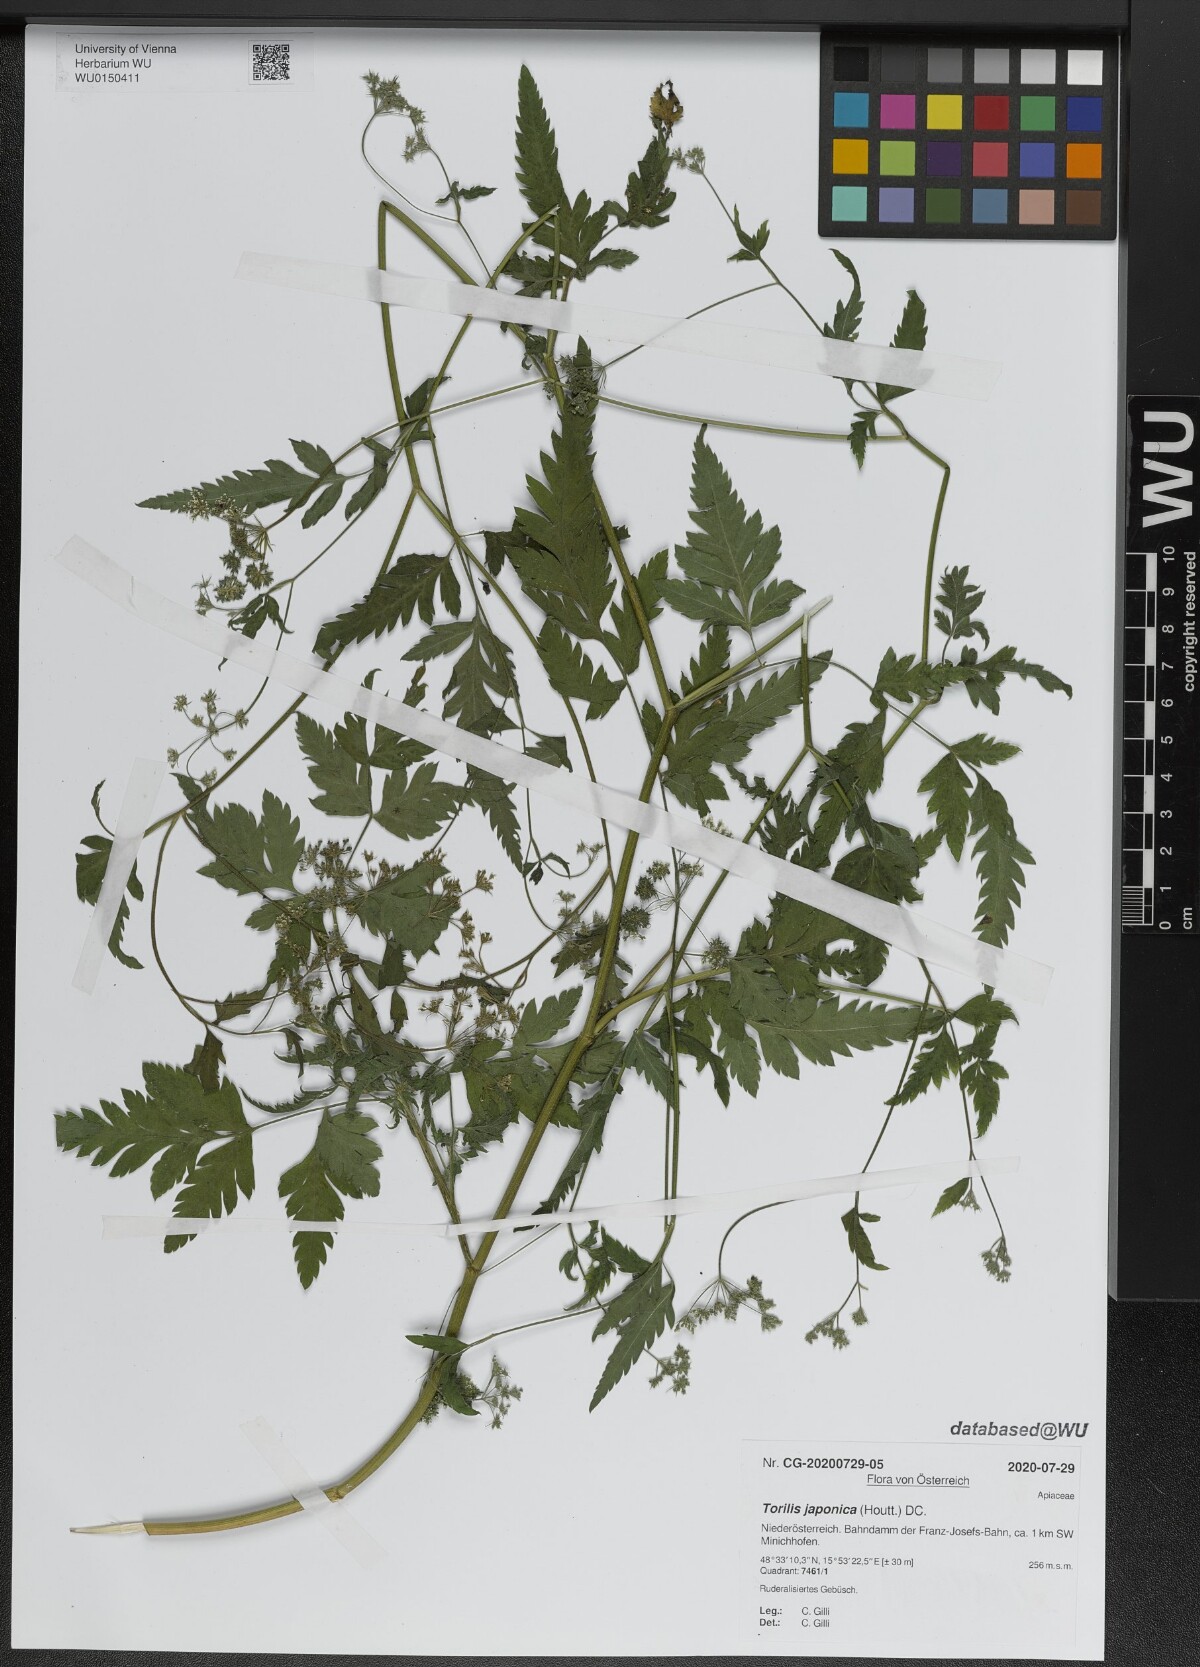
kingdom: Plantae
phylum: Tracheophyta
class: Magnoliopsida
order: Apiales
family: Apiaceae
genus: Torilis
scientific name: Torilis japonica
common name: Upright hedge-parsley
